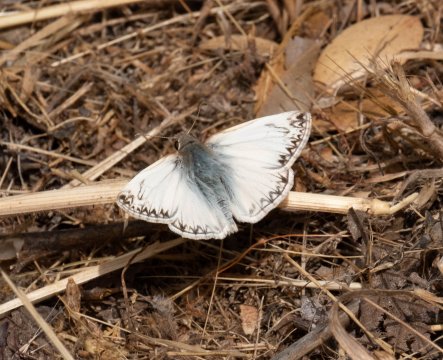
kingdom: Animalia
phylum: Arthropoda
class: Insecta
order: Lepidoptera
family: Hesperiidae
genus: Heliopetes
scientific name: Heliopetes ericetorum
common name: Northern White-Skipper
